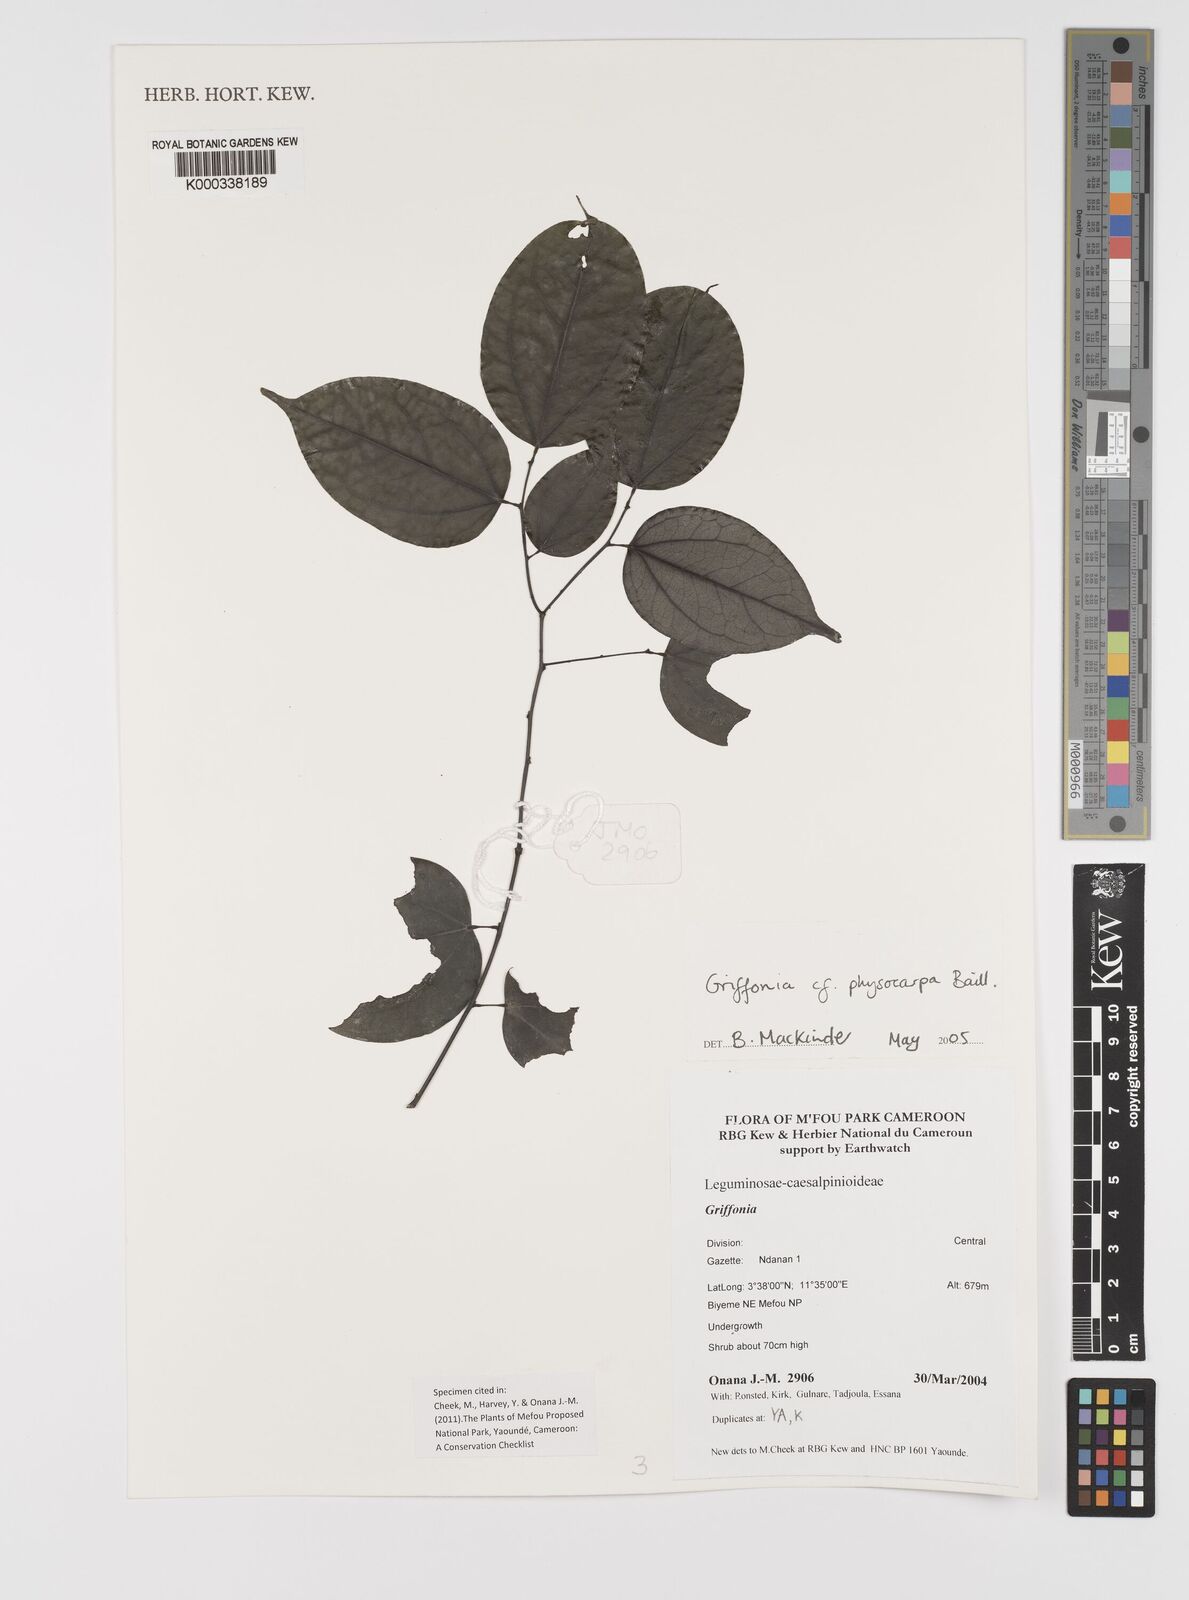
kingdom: Plantae
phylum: Tracheophyta
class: Magnoliopsida
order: Fabales
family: Fabaceae
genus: Griffonia
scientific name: Griffonia physocarpa
